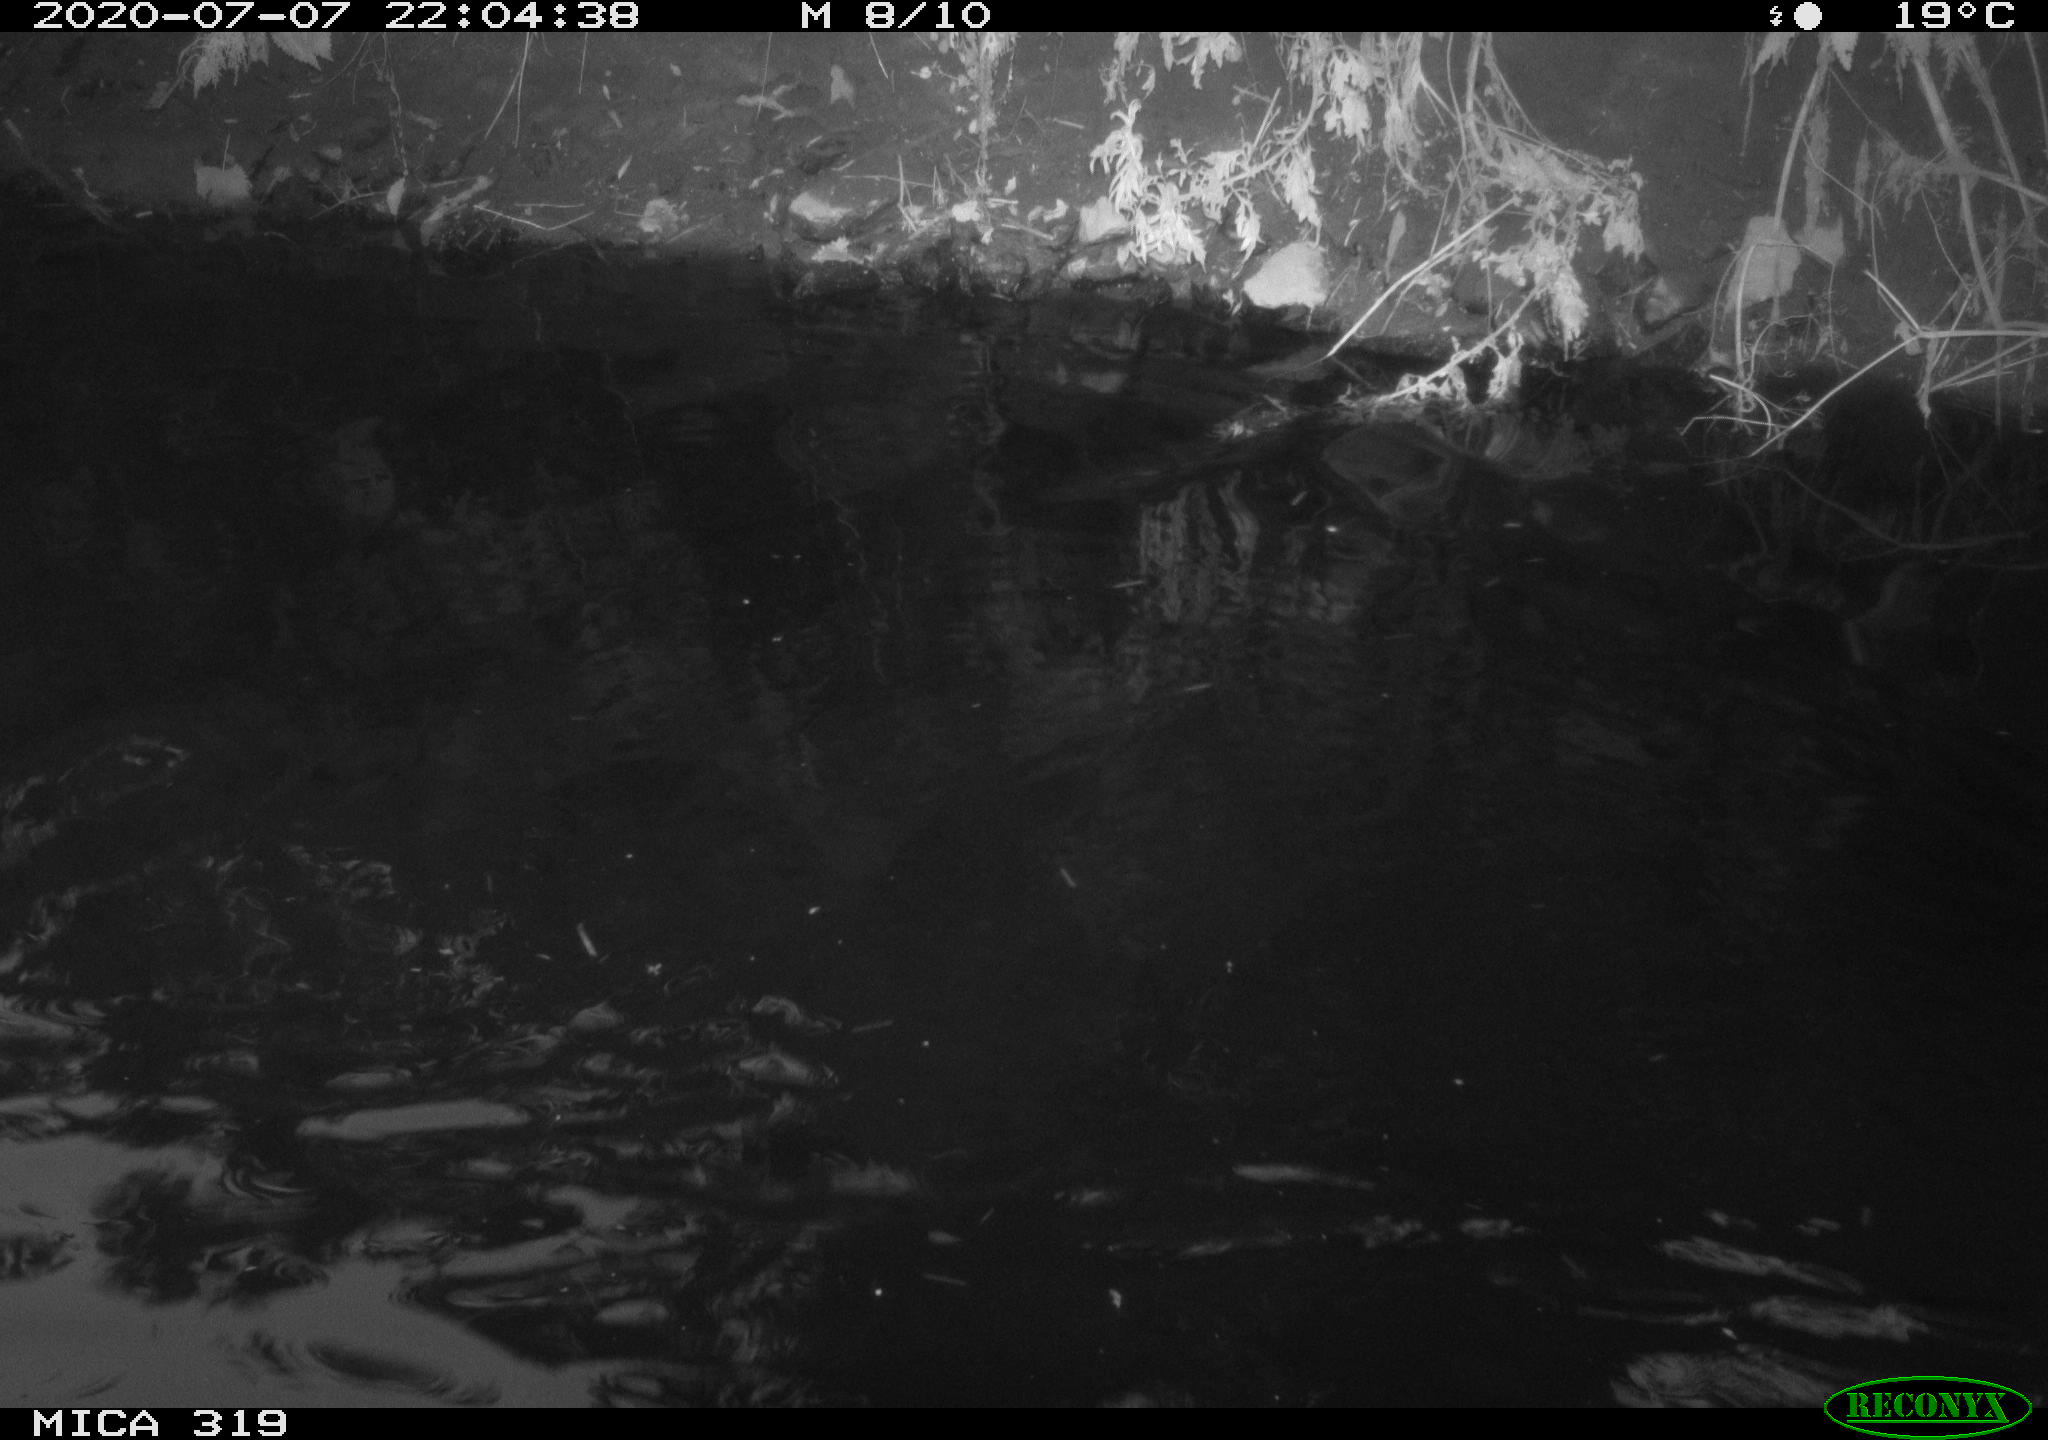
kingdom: Animalia
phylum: Chordata
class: Aves
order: Anseriformes
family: Anatidae
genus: Anas
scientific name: Anas platyrhynchos
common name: Mallard
